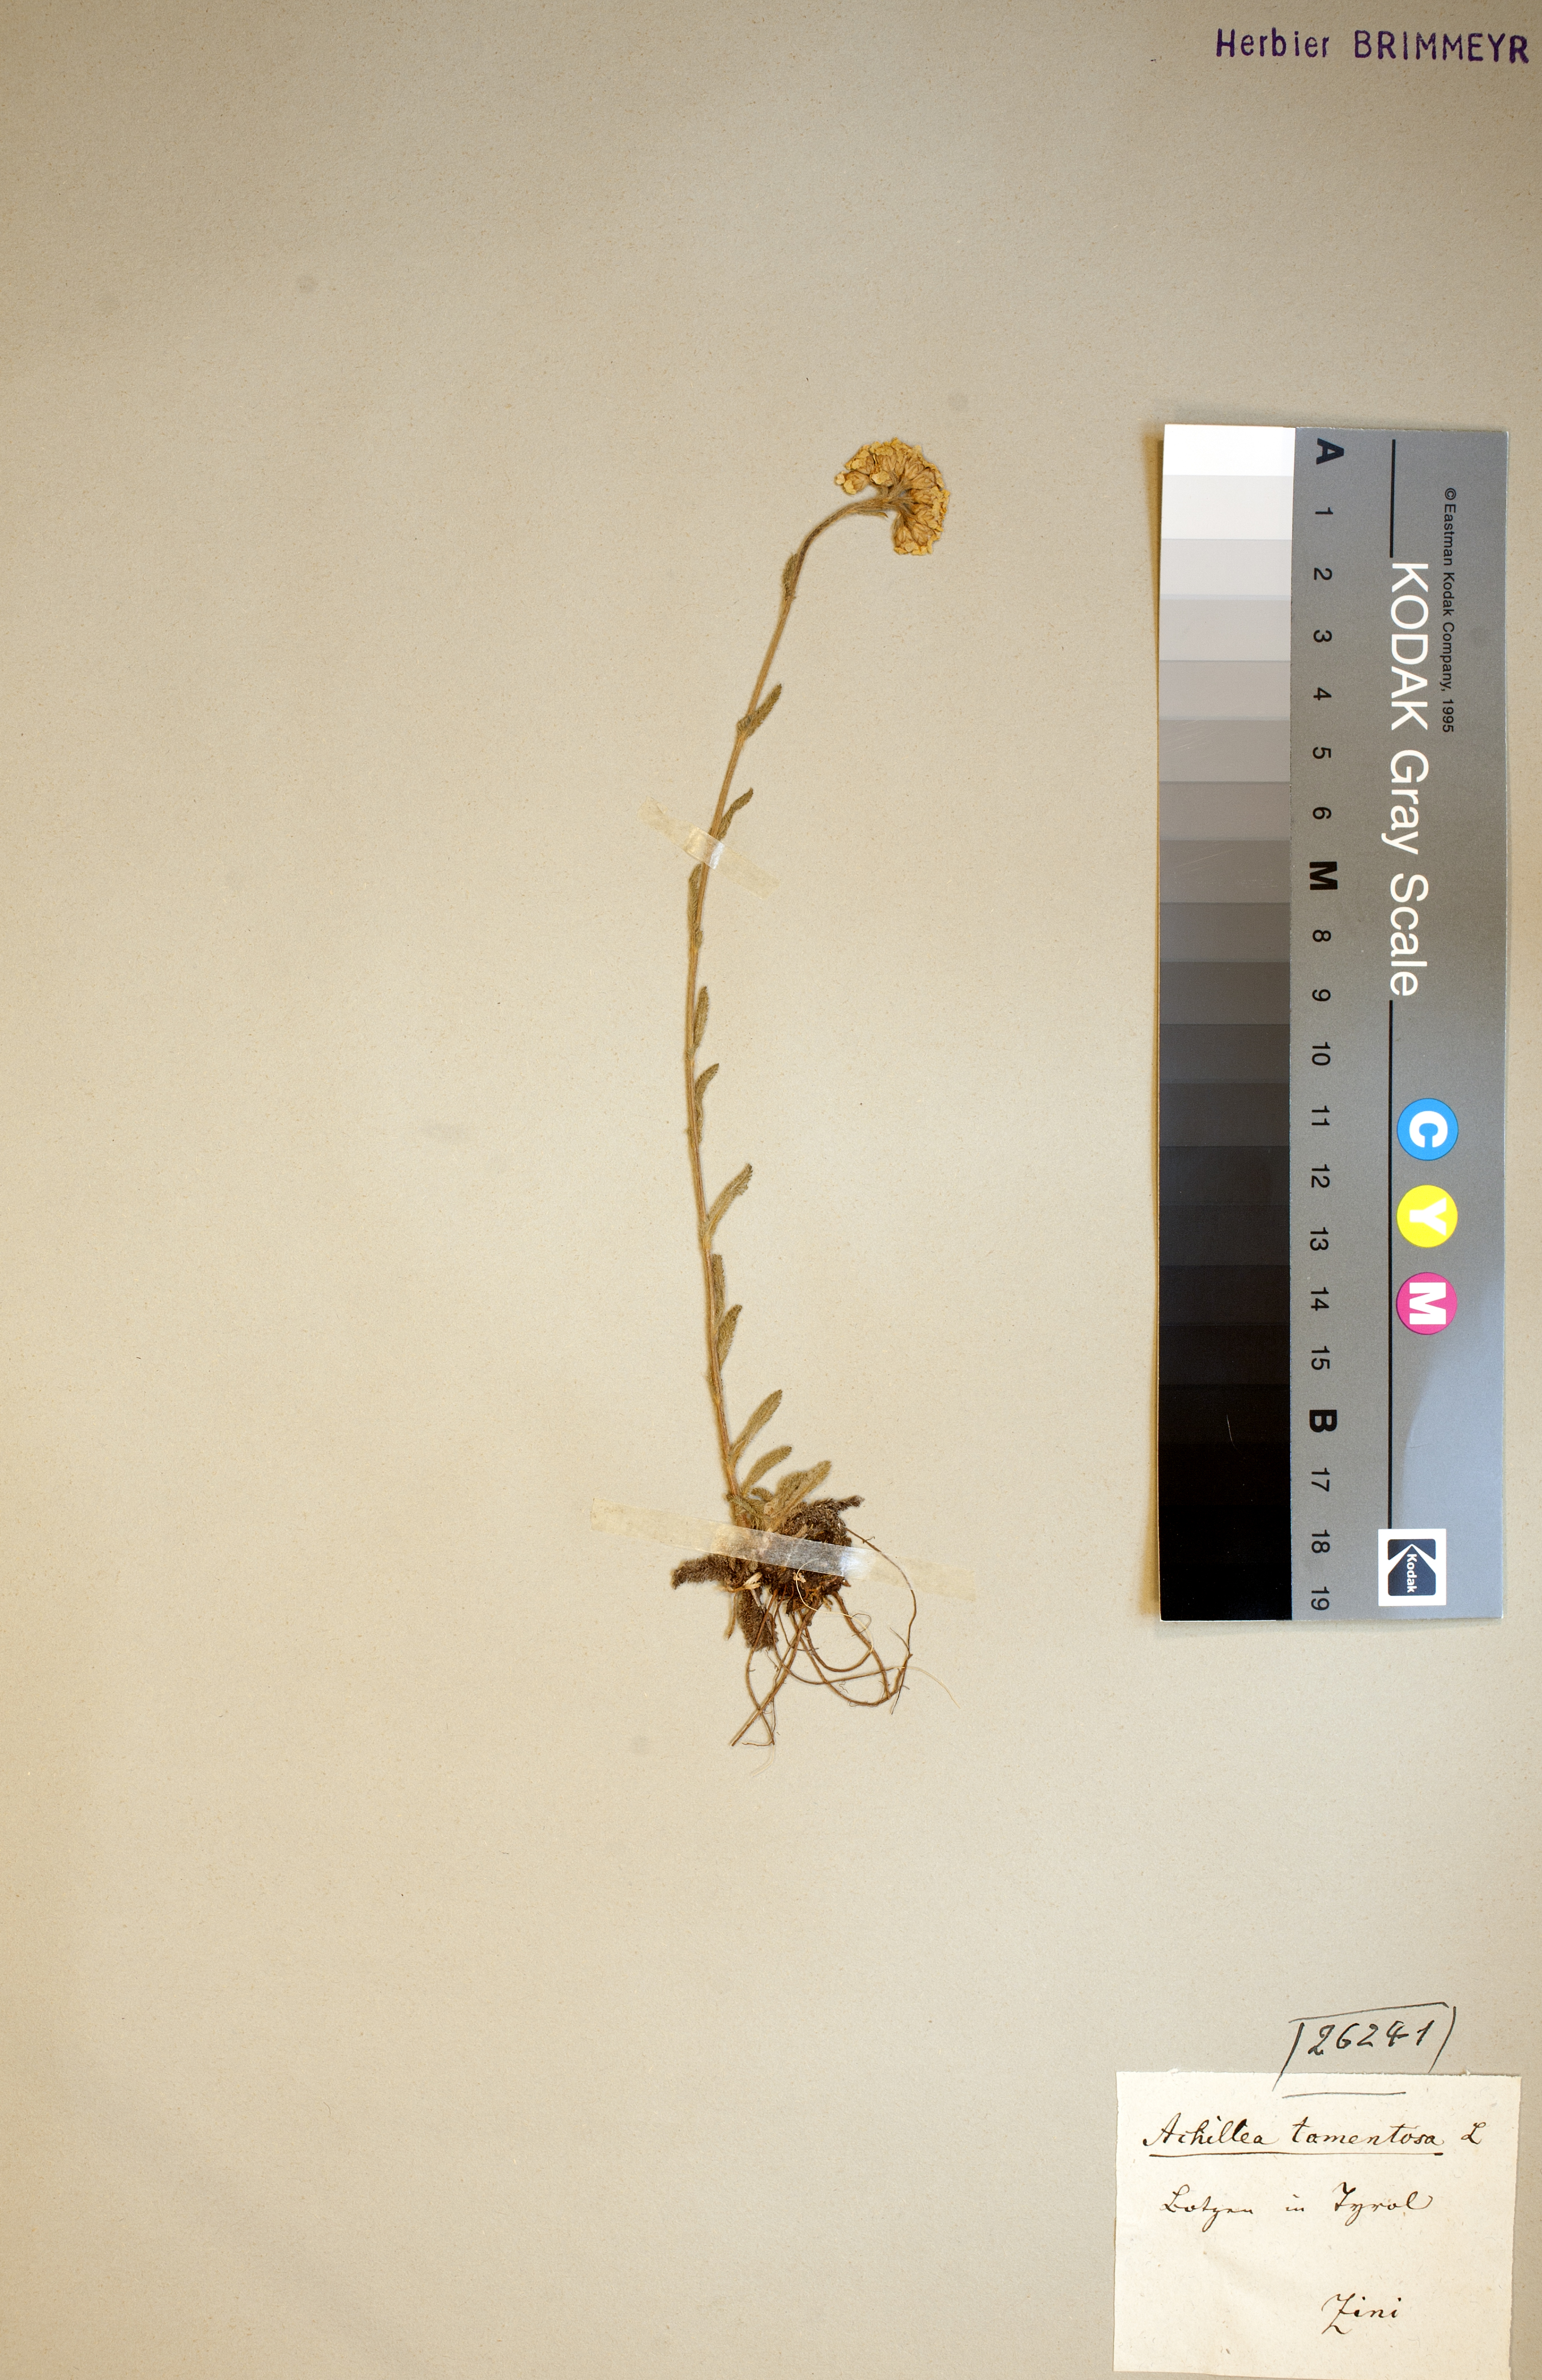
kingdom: Plantae
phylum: Tracheophyta
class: Magnoliopsida
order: Asterales
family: Asteraceae
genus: Achillea
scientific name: Achillea tomentosa
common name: Yellow milfoil
